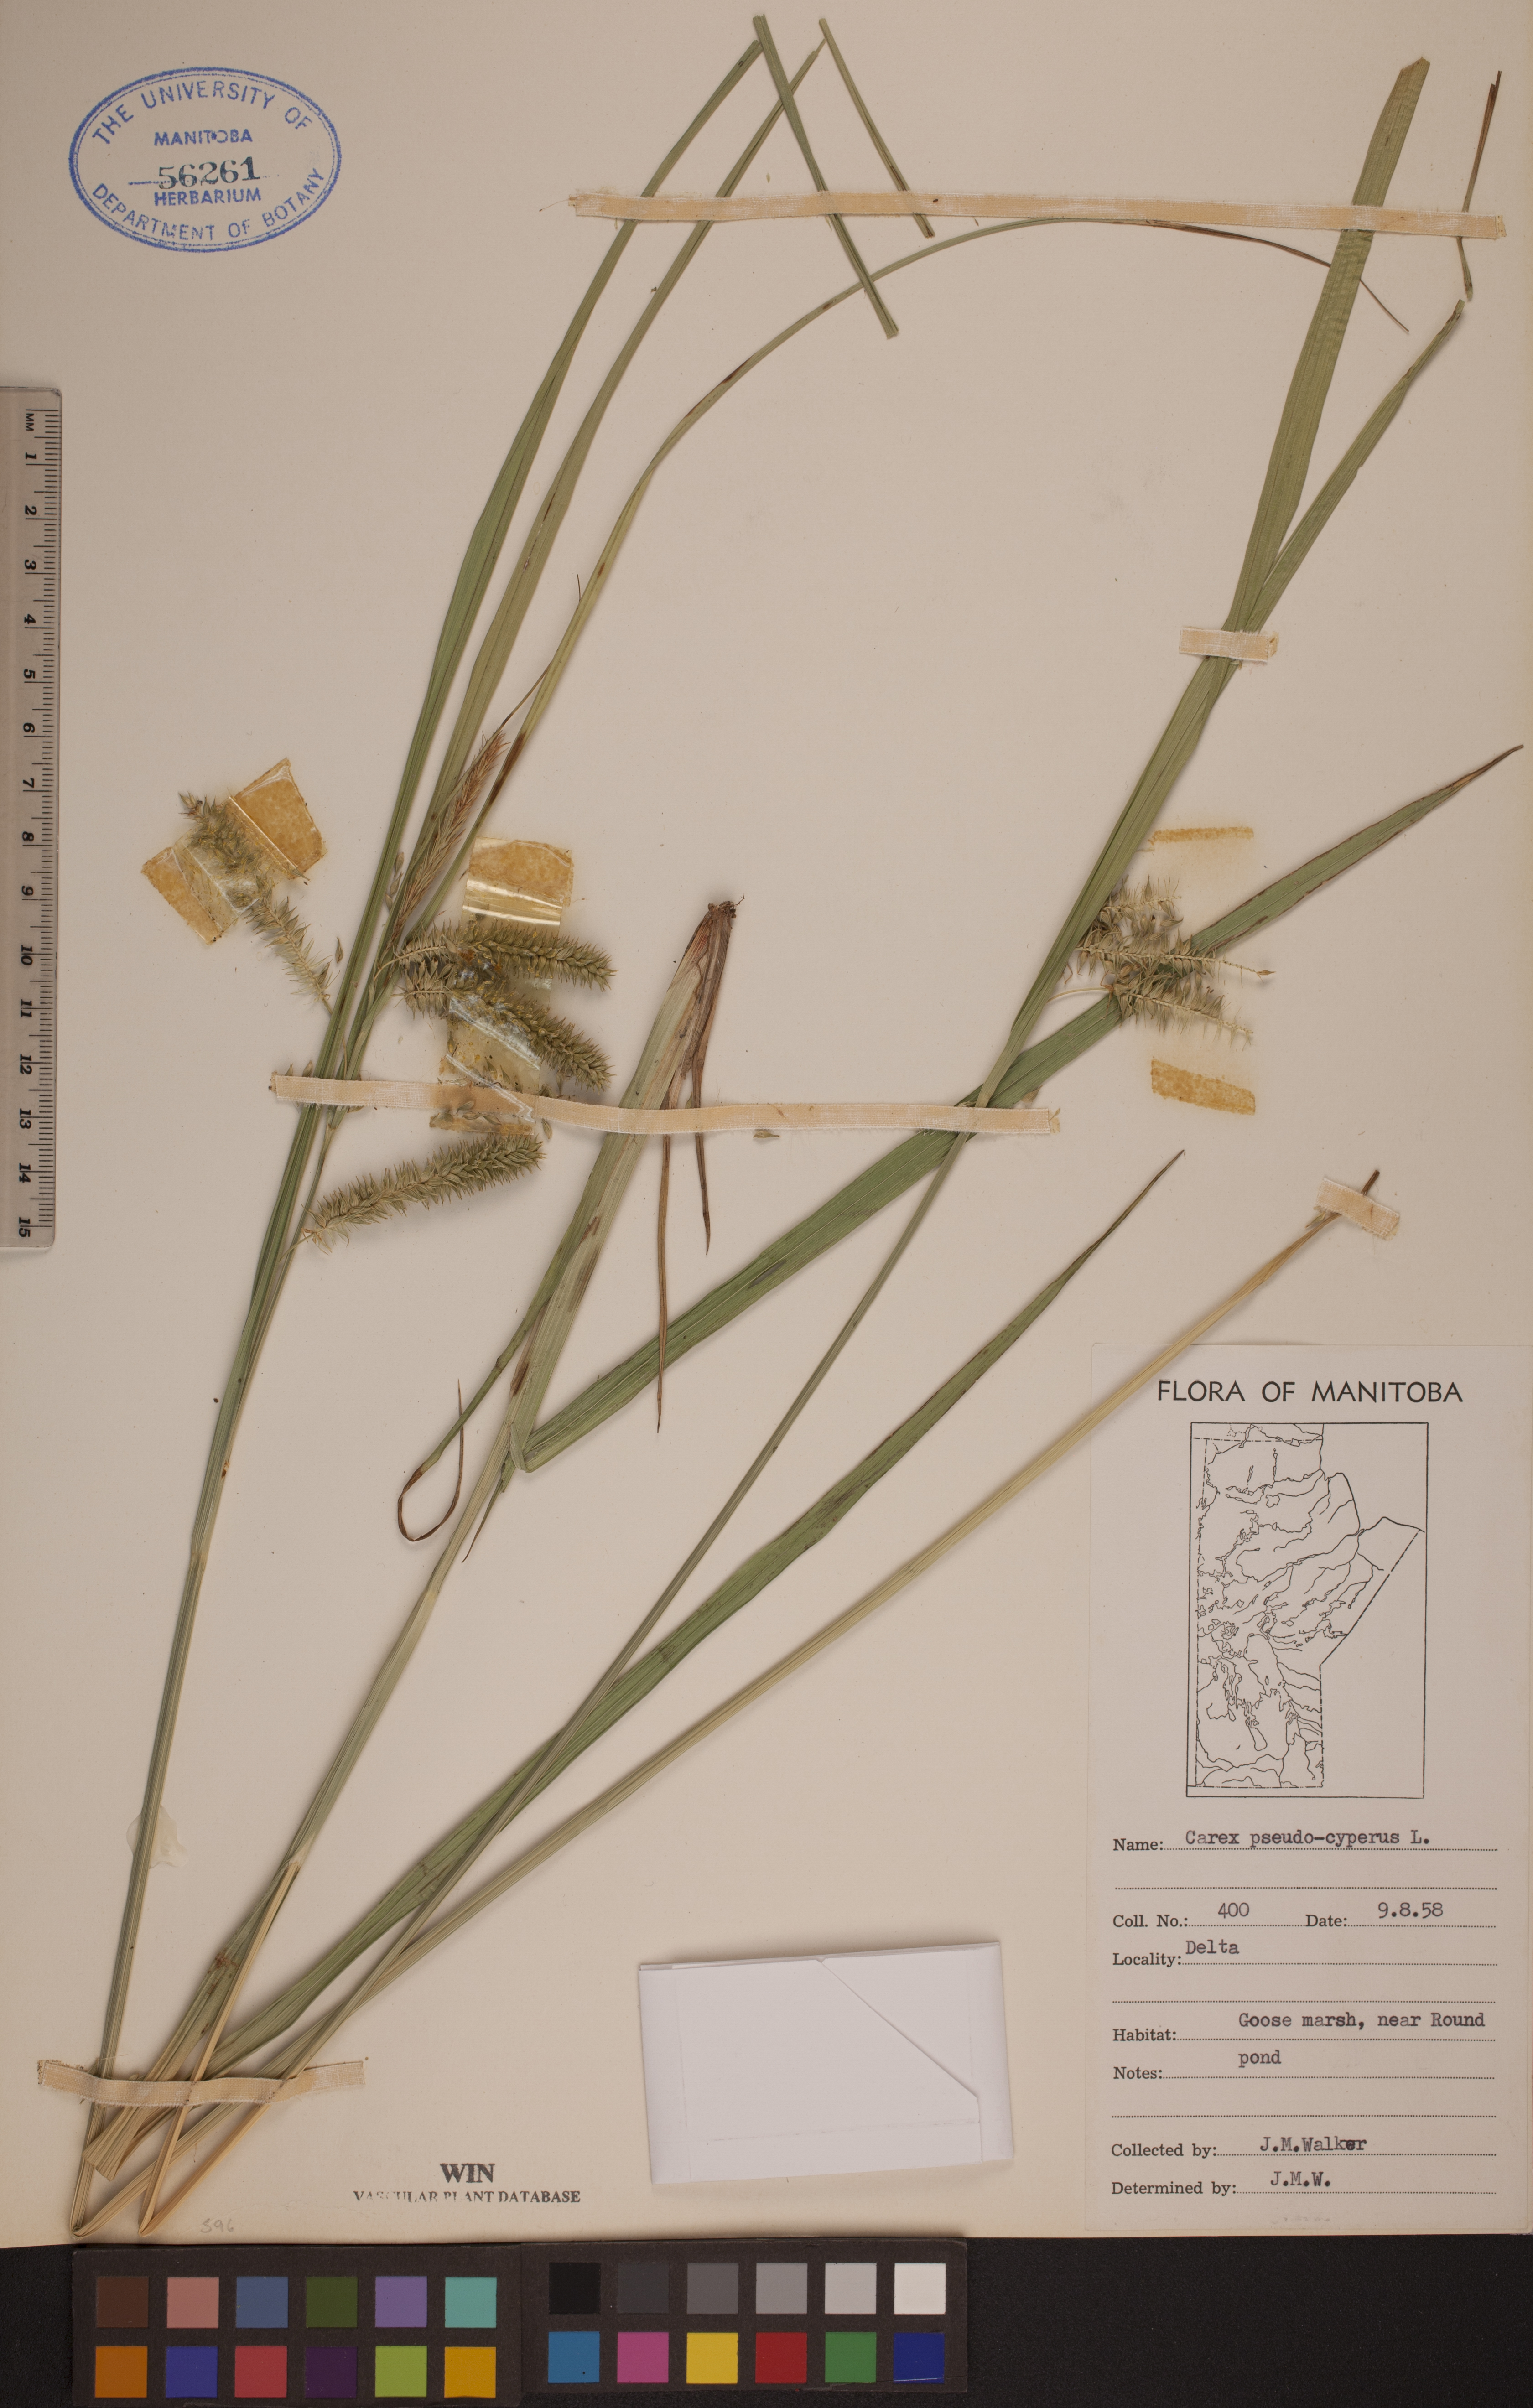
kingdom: Plantae
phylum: Tracheophyta
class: Liliopsida
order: Poales
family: Cyperaceae
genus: Carex
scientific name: Carex pseudocyperus
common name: Cyperus sedge
